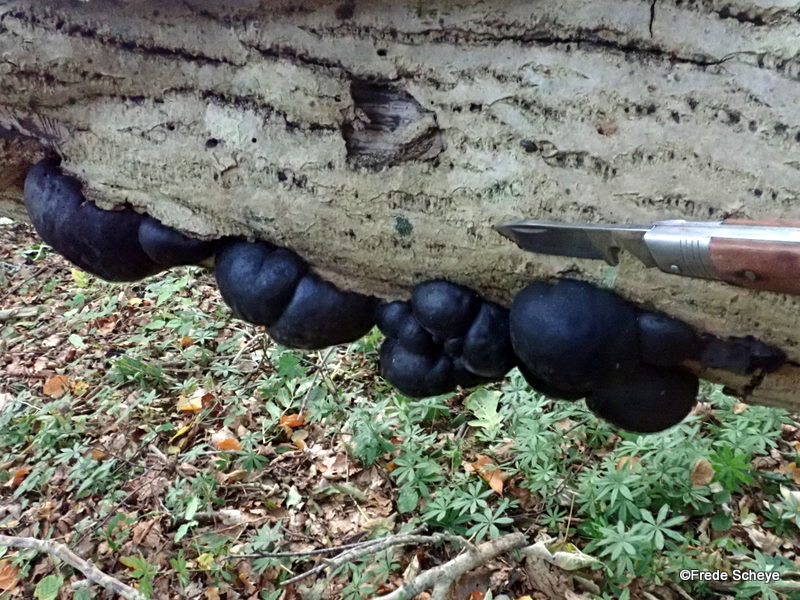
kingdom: Fungi
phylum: Ascomycota
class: Sordariomycetes
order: Xylariales
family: Hypoxylaceae
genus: Daldinia
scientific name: Daldinia concentrica
